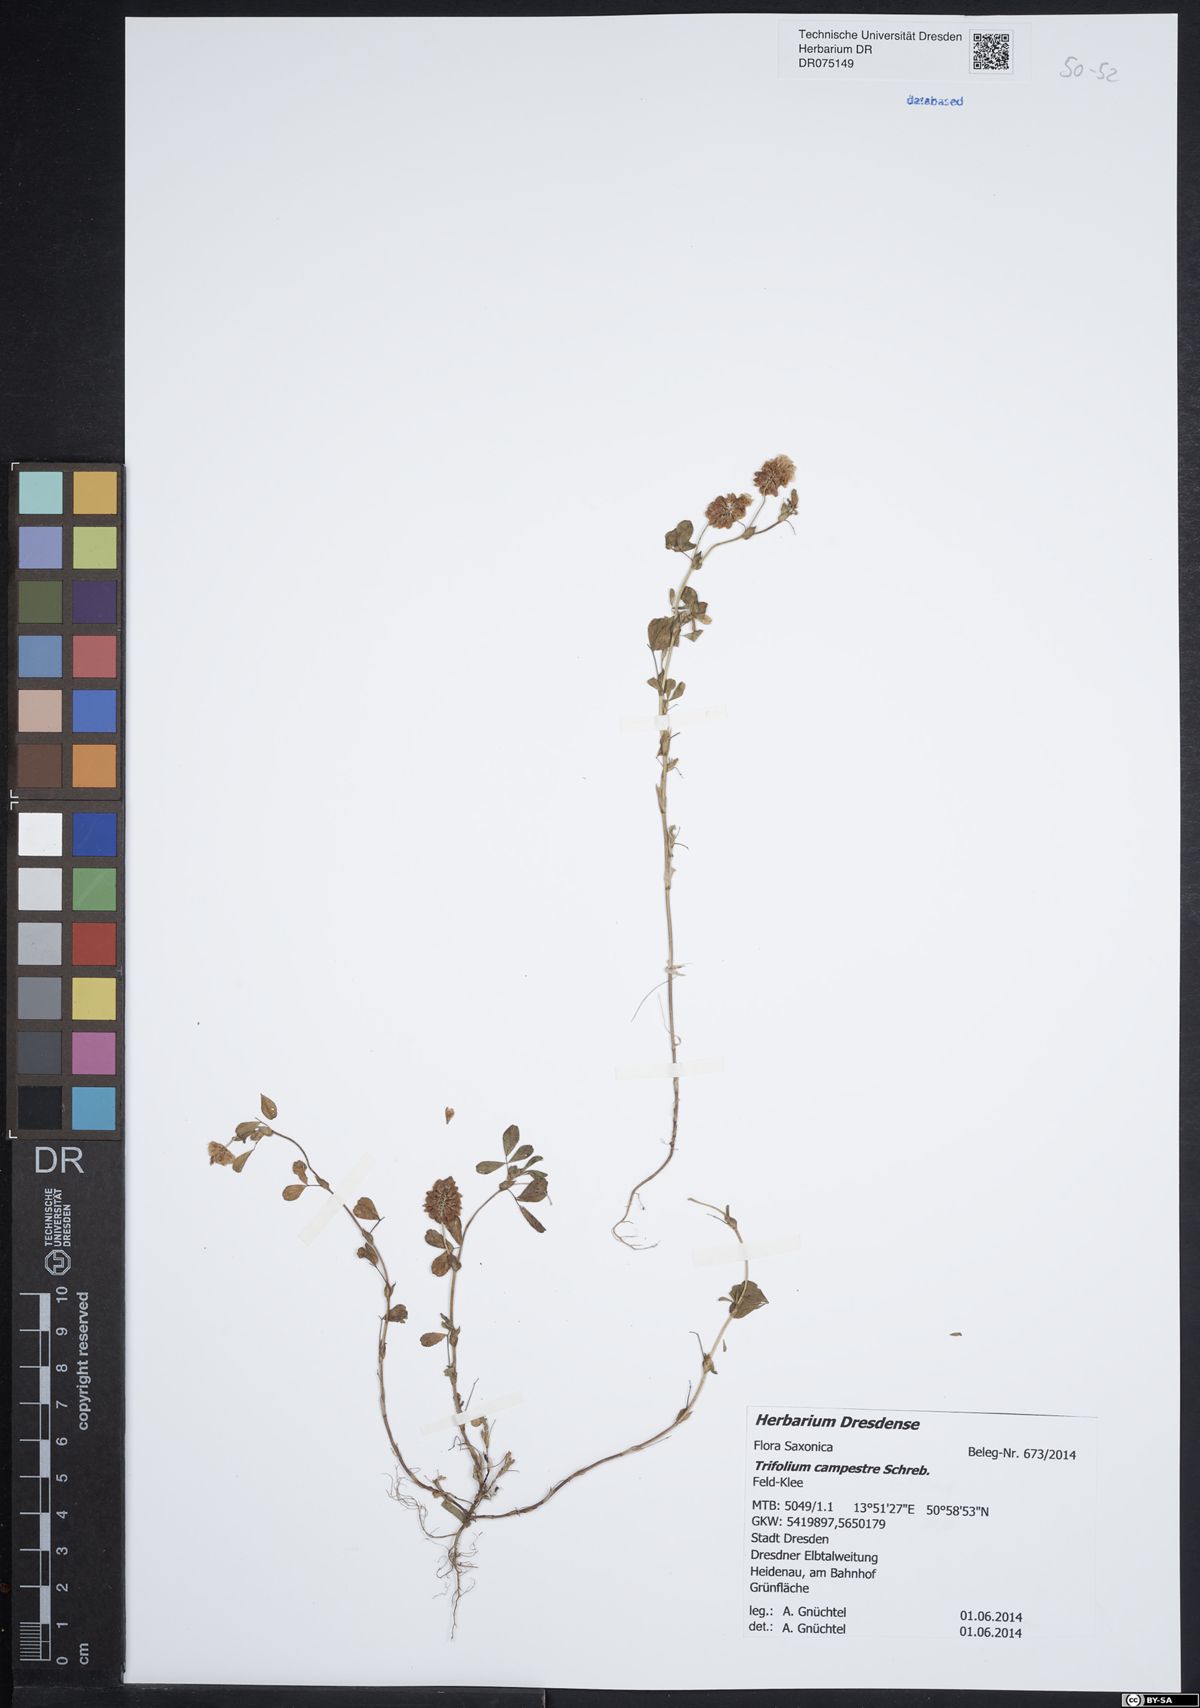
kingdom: Plantae
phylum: Tracheophyta
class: Magnoliopsida
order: Fabales
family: Fabaceae
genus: Trifolium
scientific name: Trifolium campestre
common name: Field clover
